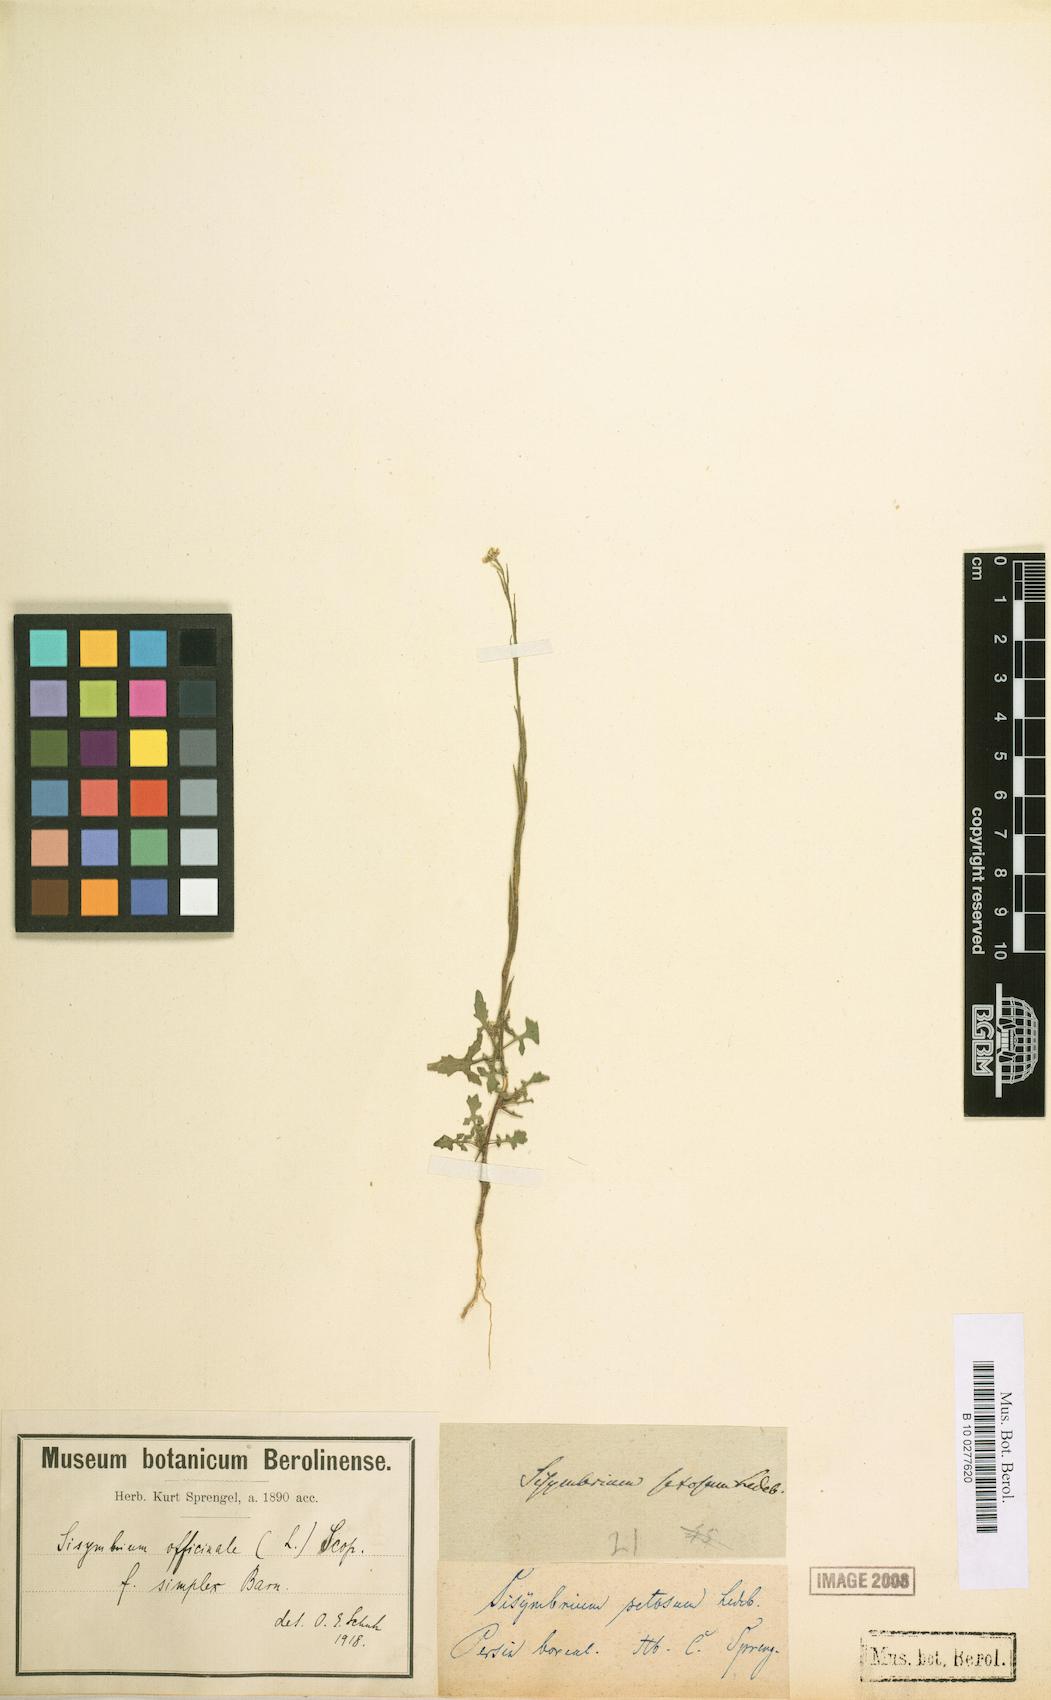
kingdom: Plantae
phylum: Tracheophyta
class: Magnoliopsida
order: Brassicales
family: Brassicaceae
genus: Sisymbrium
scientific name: Sisymbrium officinale
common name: Hedge mustard
